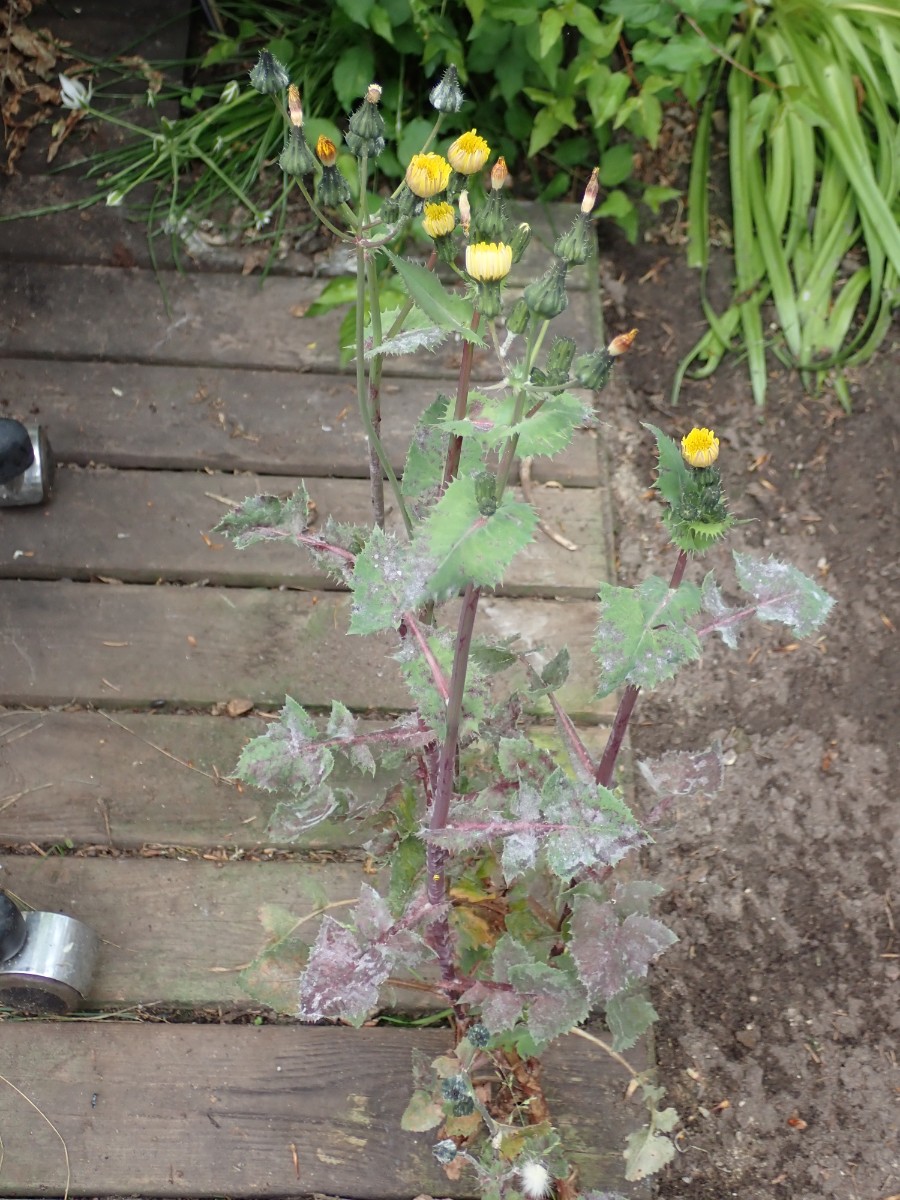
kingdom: Fungi
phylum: Ascomycota
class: Leotiomycetes
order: Helotiales
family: Erysiphaceae
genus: Golovinomyces
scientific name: Golovinomyces sonchicola
